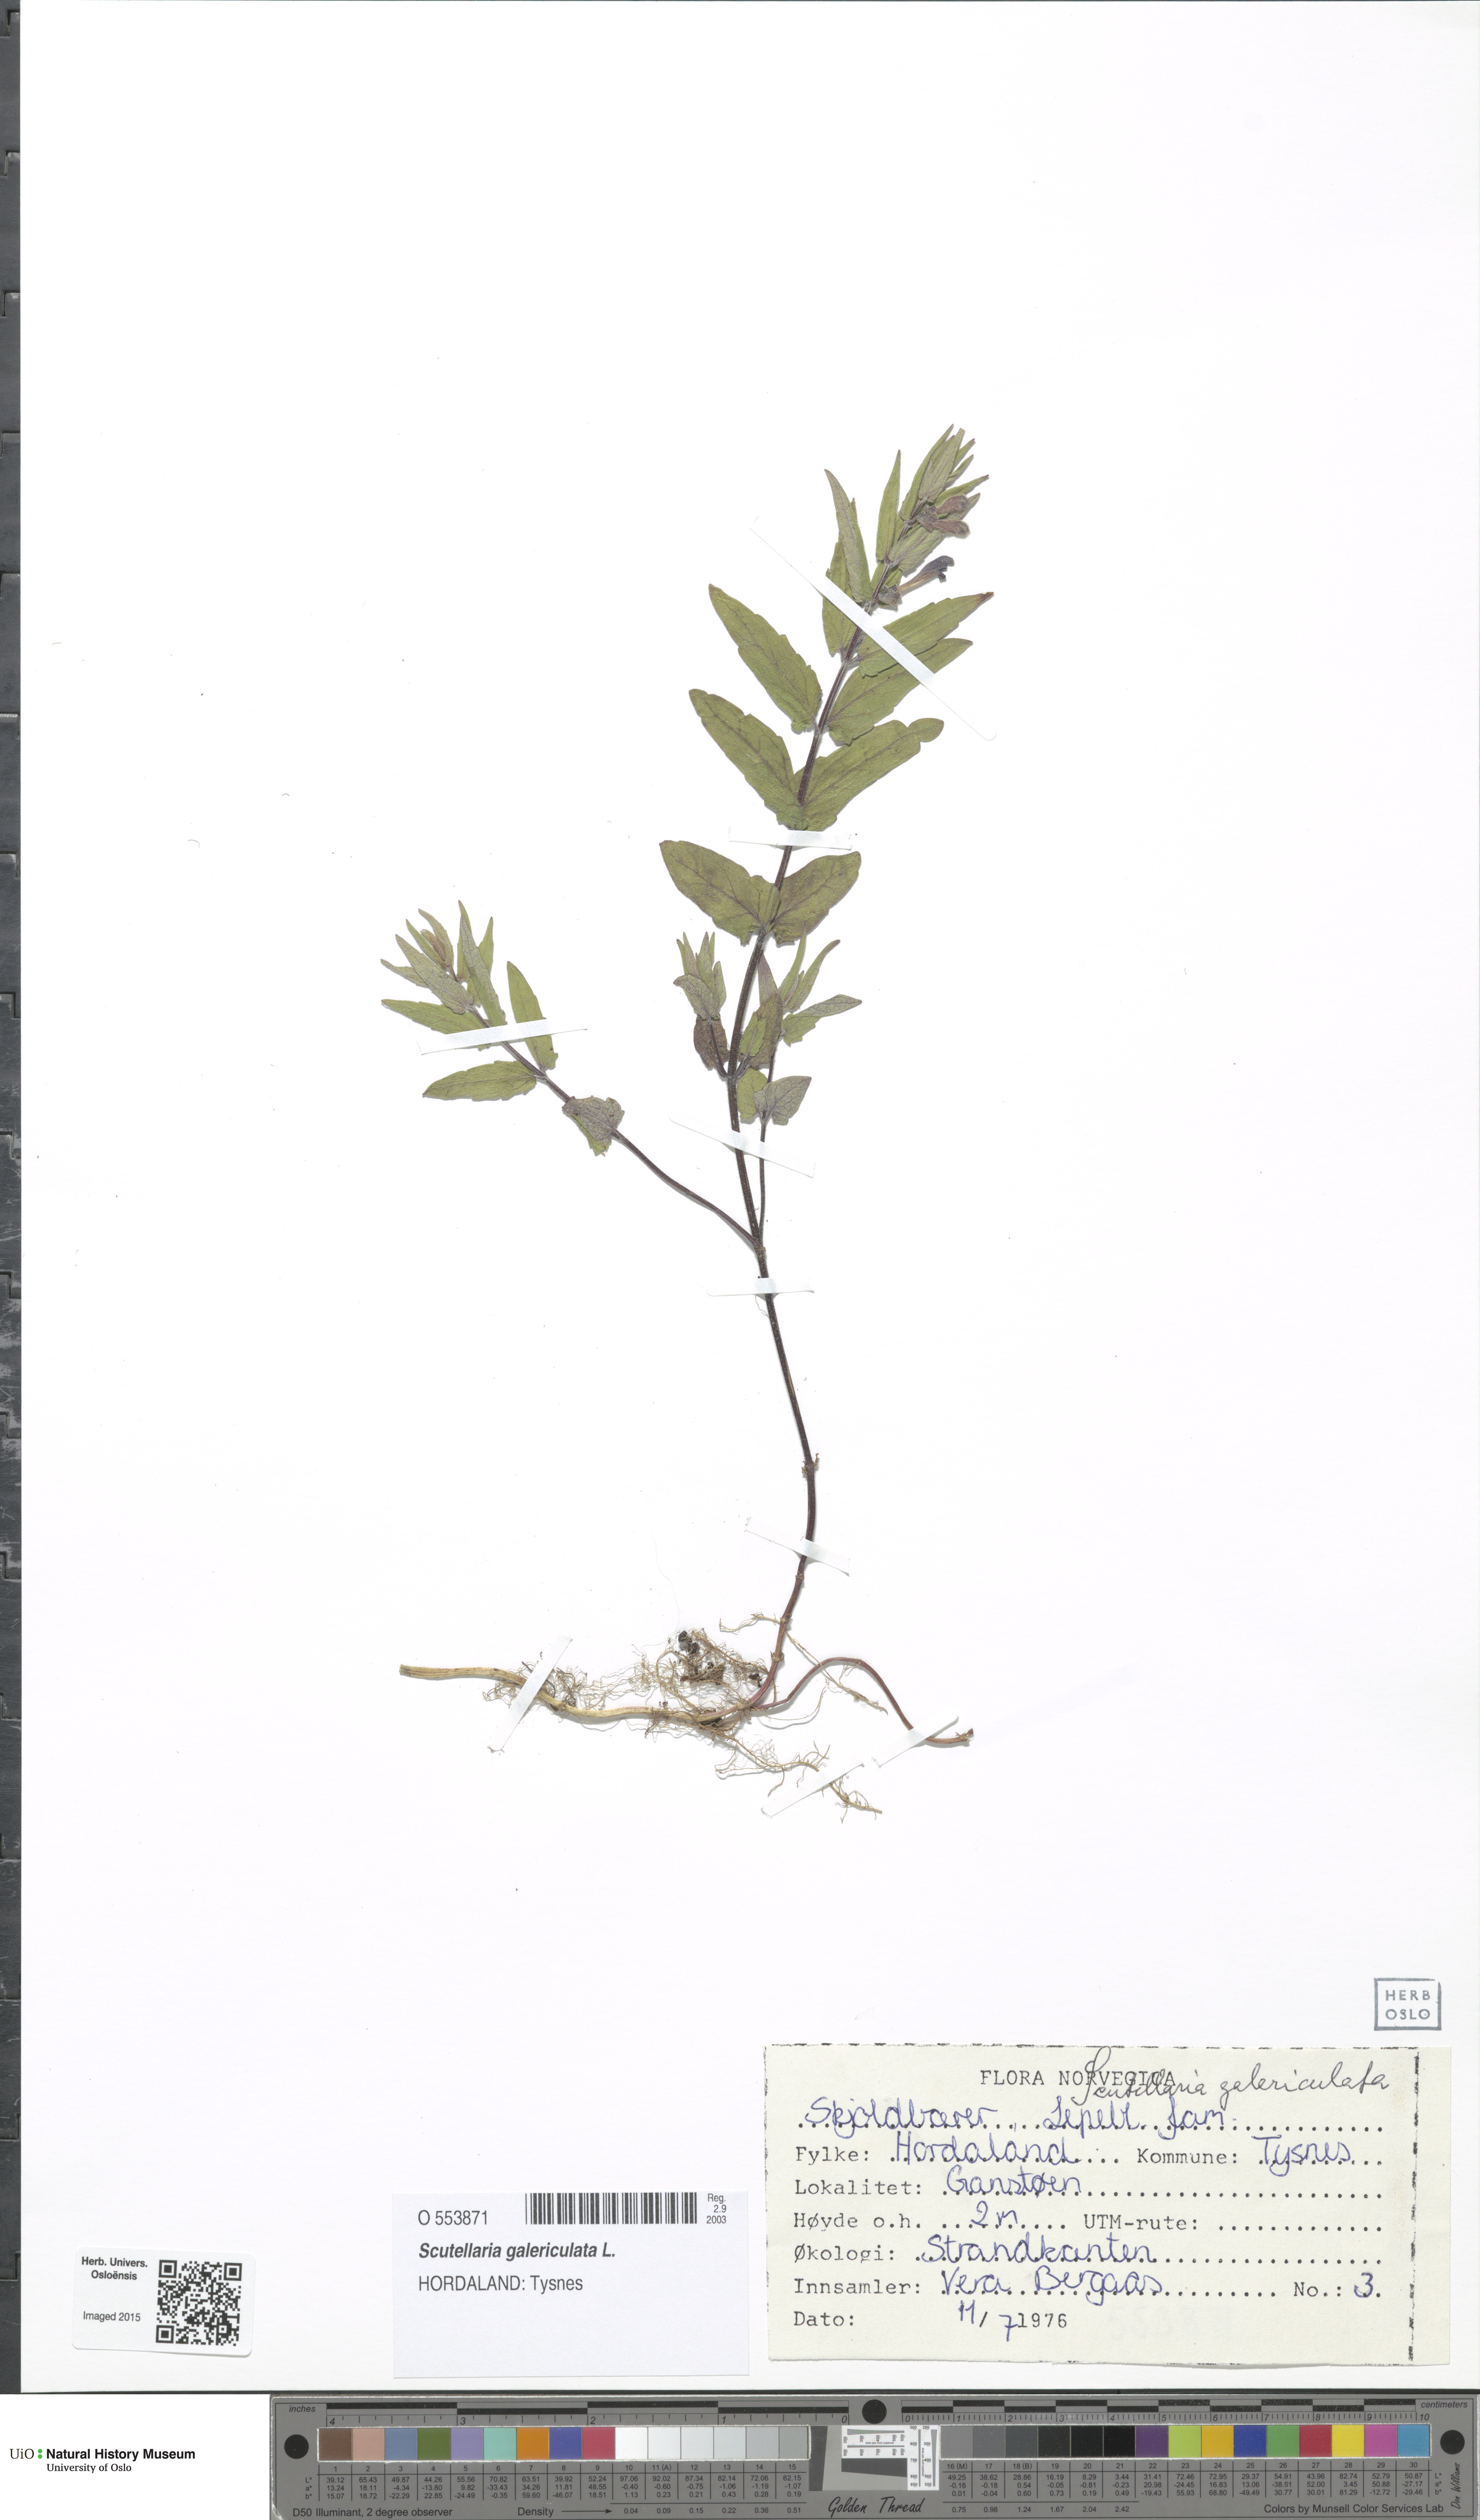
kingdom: Plantae
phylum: Tracheophyta
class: Magnoliopsida
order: Lamiales
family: Lamiaceae
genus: Scutellaria
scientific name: Scutellaria galericulata
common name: Skullcap
